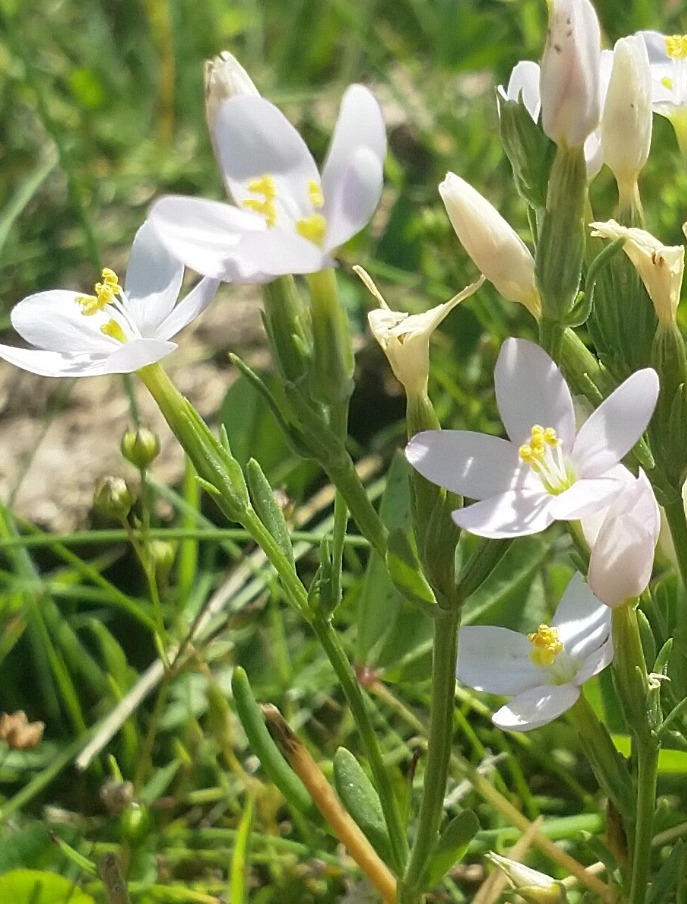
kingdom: Plantae
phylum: Tracheophyta
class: Magnoliopsida
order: Gentianales
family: Gentianaceae
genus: Centaurium
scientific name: Centaurium erythraea
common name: Mark-tusindgylden
